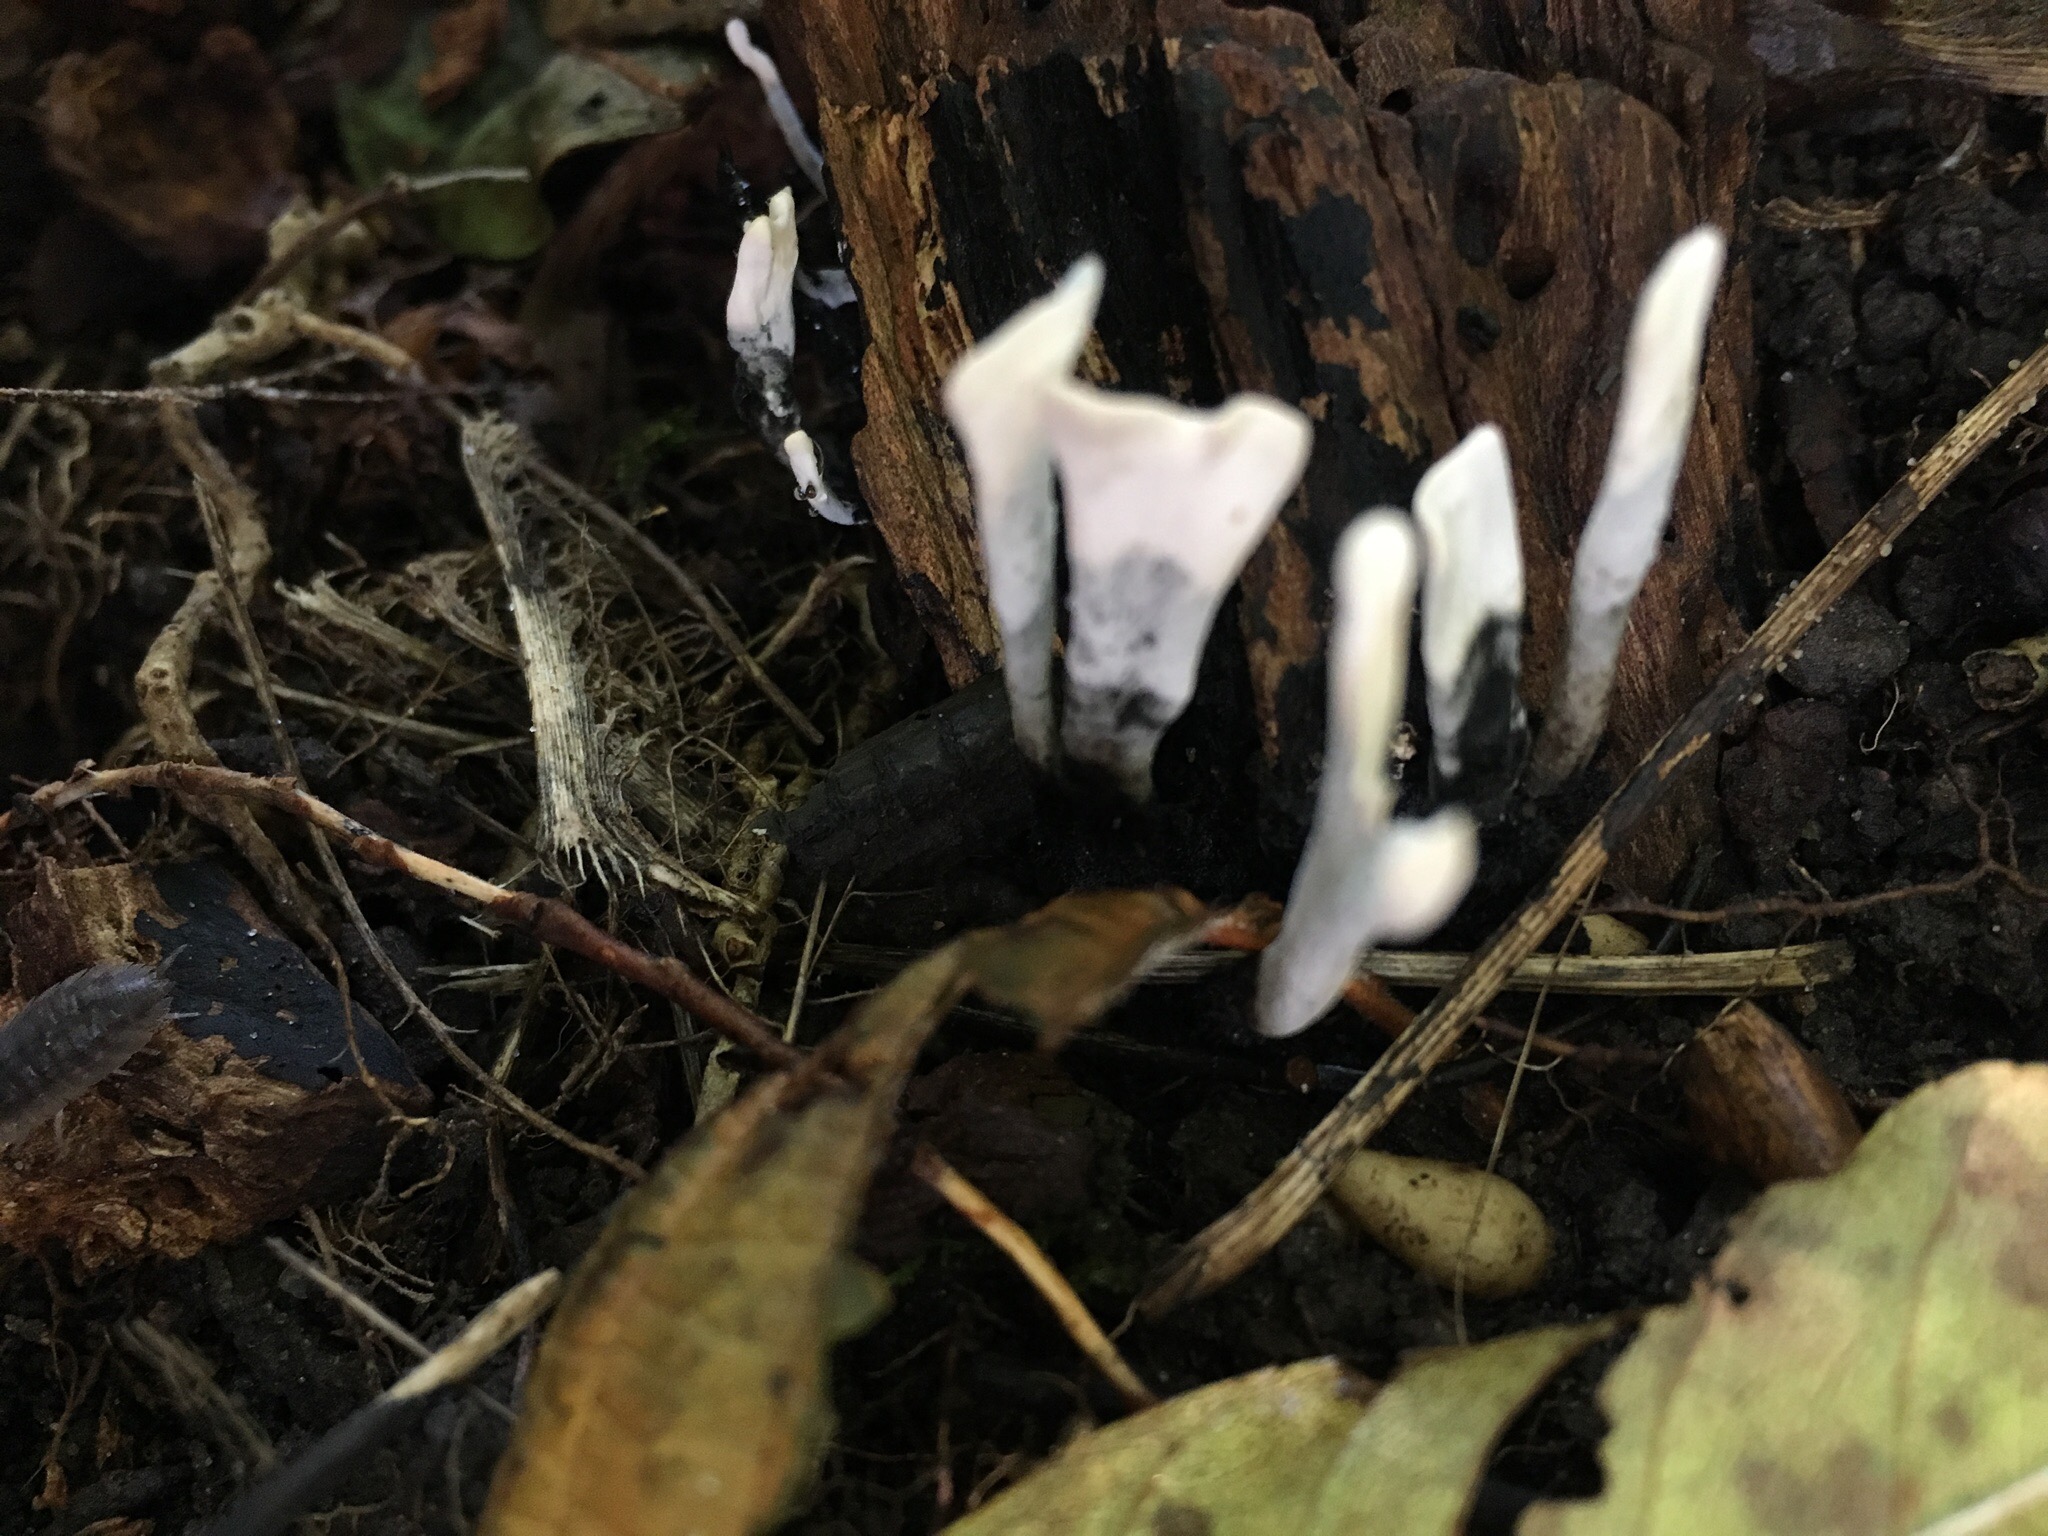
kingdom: Fungi
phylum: Ascomycota
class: Sordariomycetes
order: Xylariales
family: Xylariaceae
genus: Xylaria
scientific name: Xylaria hypoxylon
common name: grenet stødsvamp
